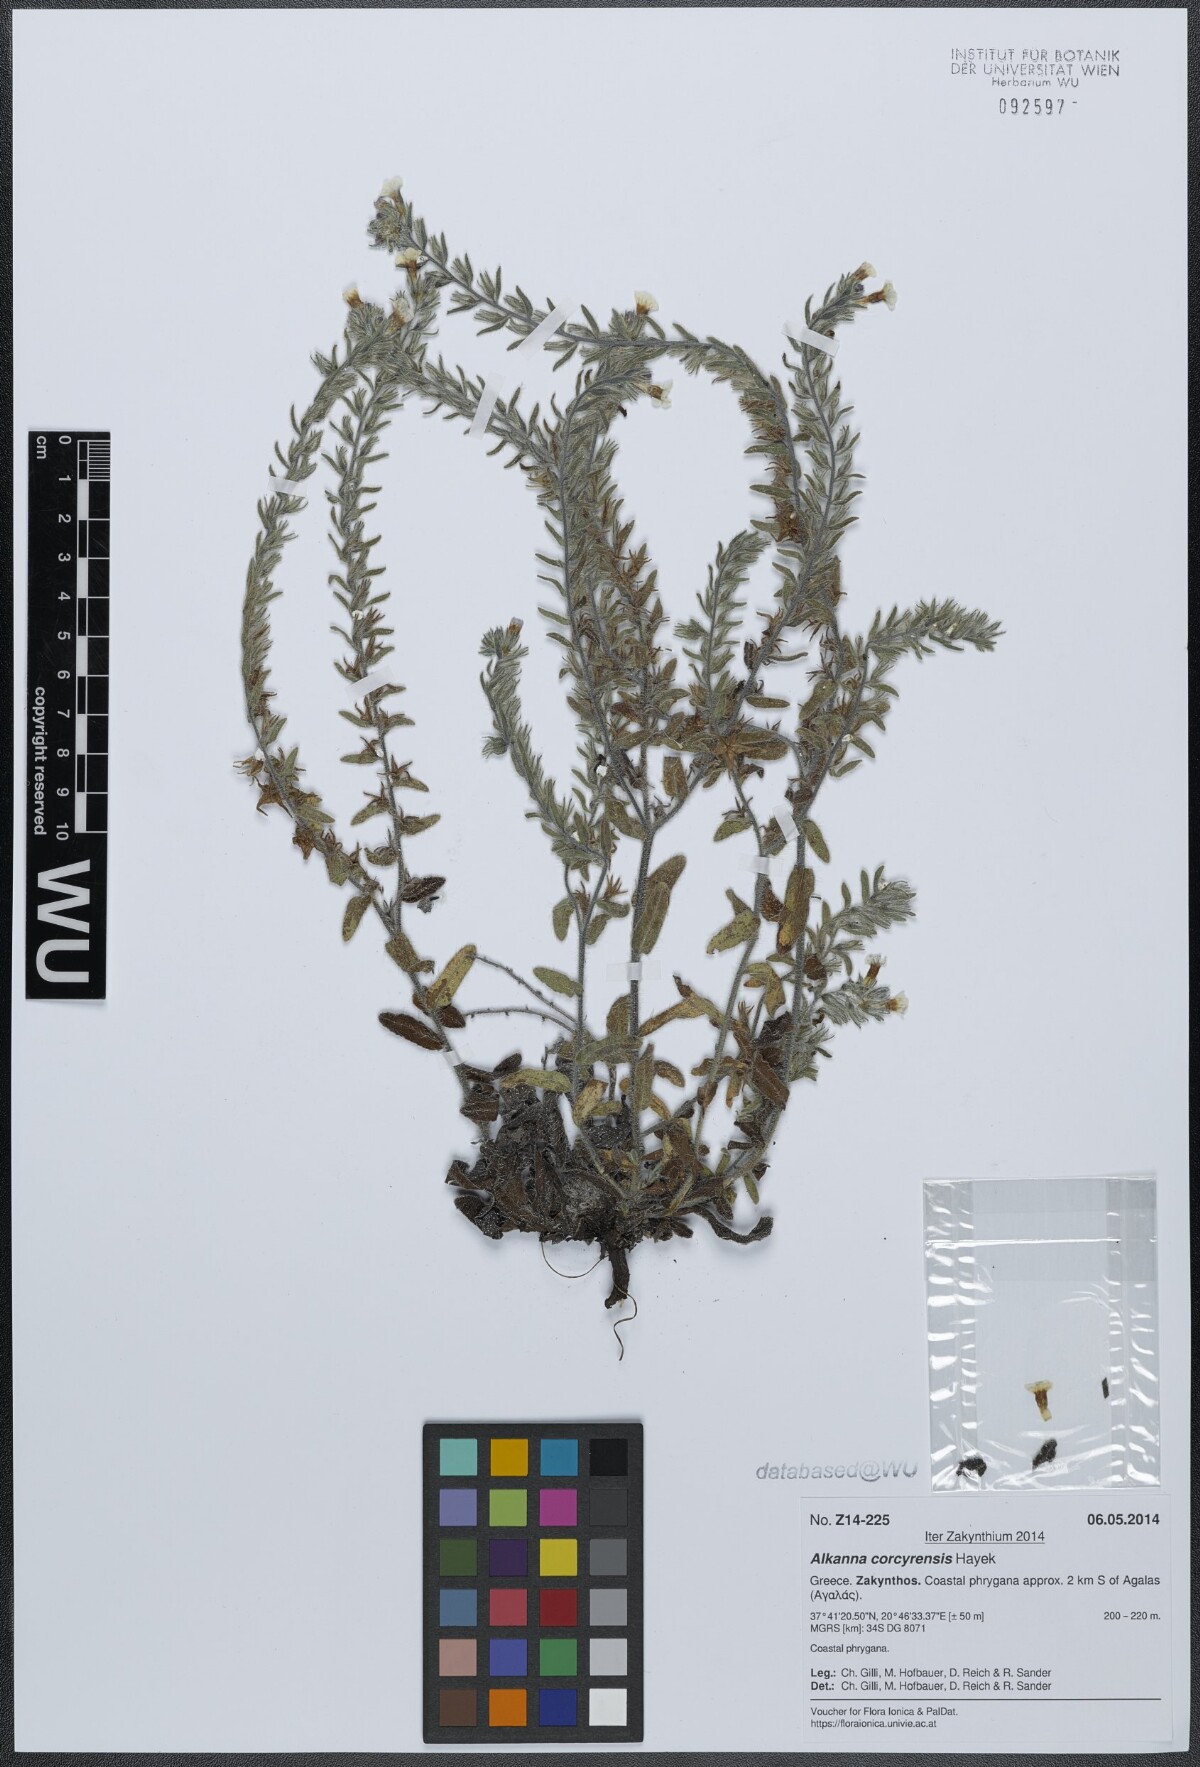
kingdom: Plantae
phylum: Tracheophyta
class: Magnoliopsida
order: Boraginales
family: Boraginaceae
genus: Alkanna
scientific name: Alkanna corcyrensis
